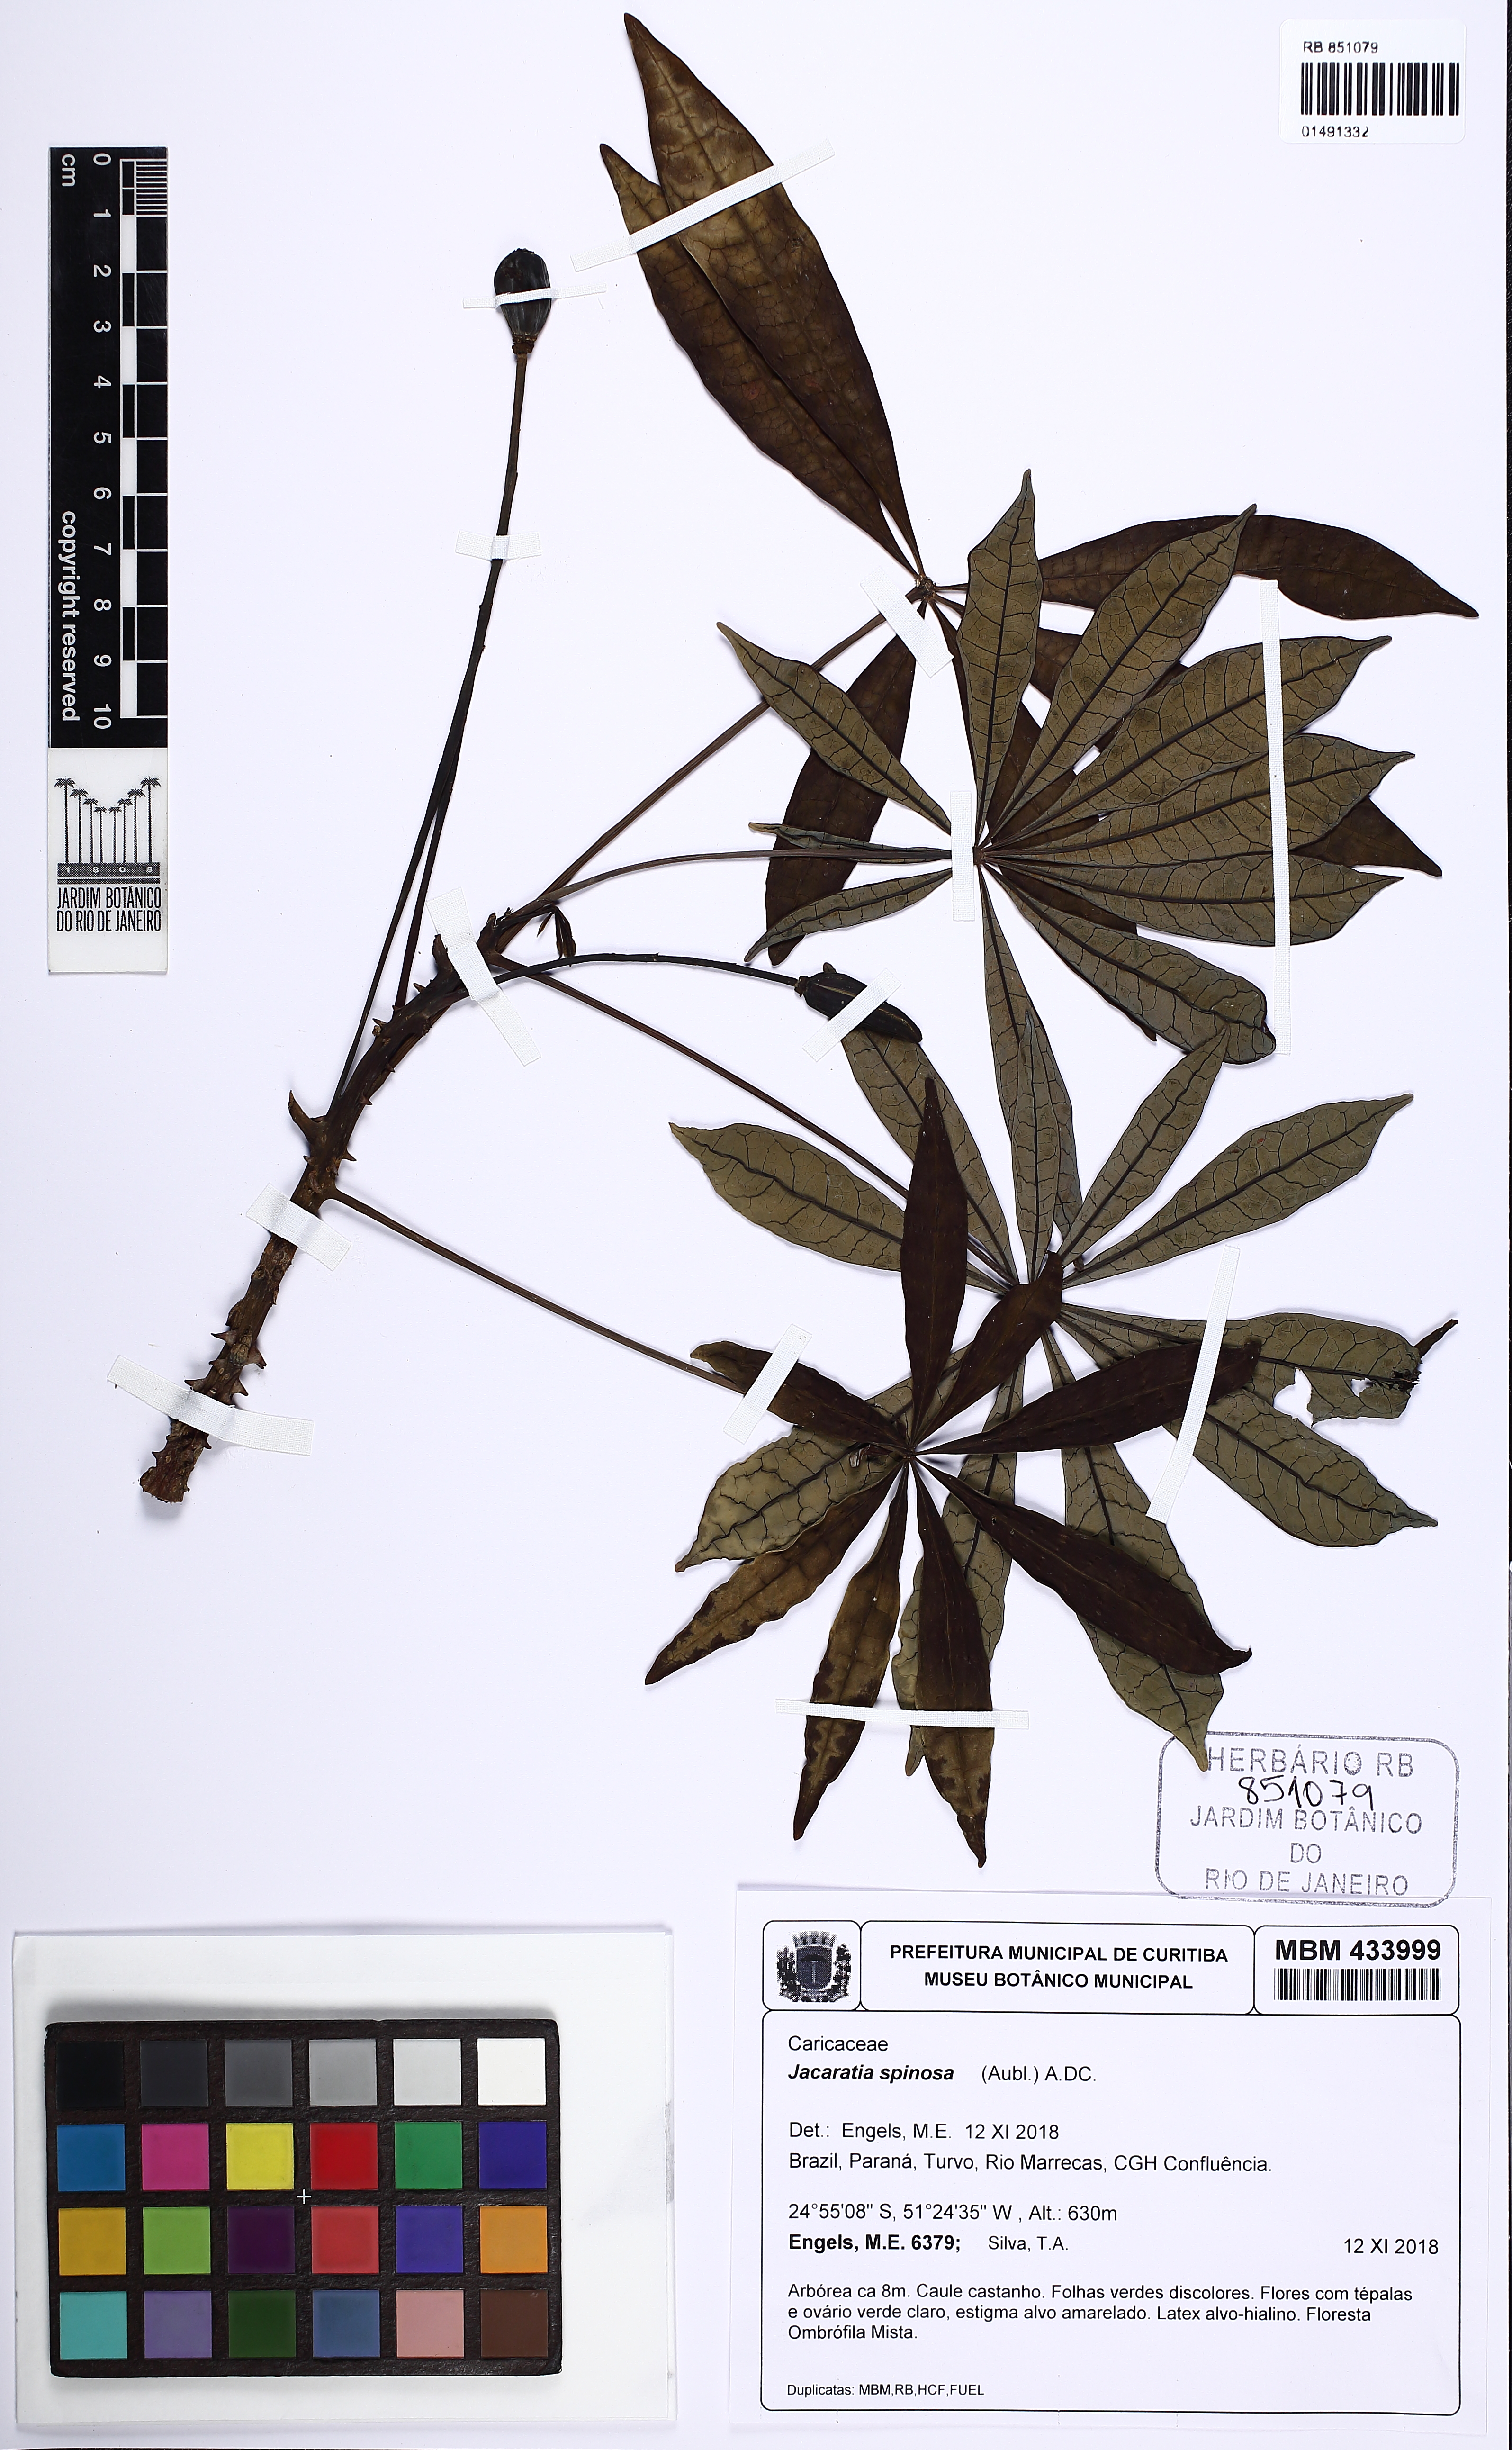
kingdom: Plantae
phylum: Tracheophyta
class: Magnoliopsida
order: Brassicales
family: Caricaceae
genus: Jacaratia
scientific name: Jacaratia spinosa
